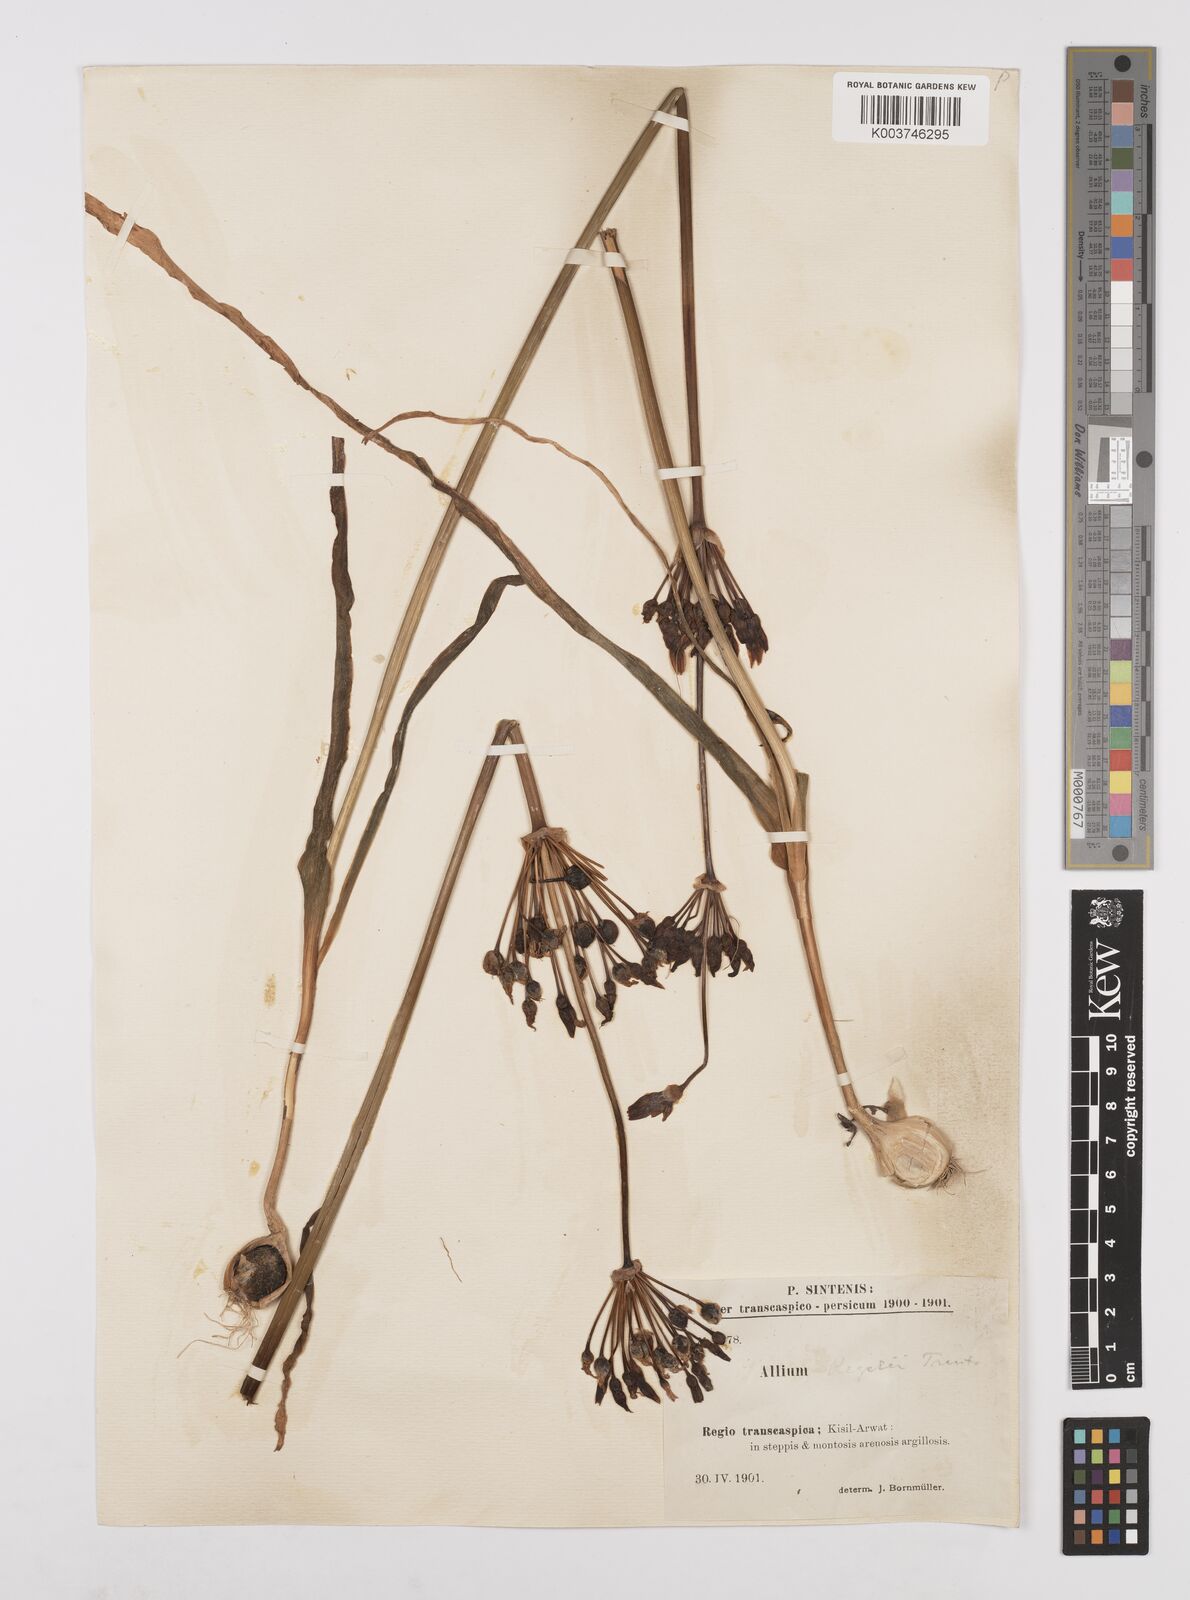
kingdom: Plantae
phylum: Tracheophyta
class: Liliopsida
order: Asparagales
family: Amaryllidaceae
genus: Allium
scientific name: Allium regelii
